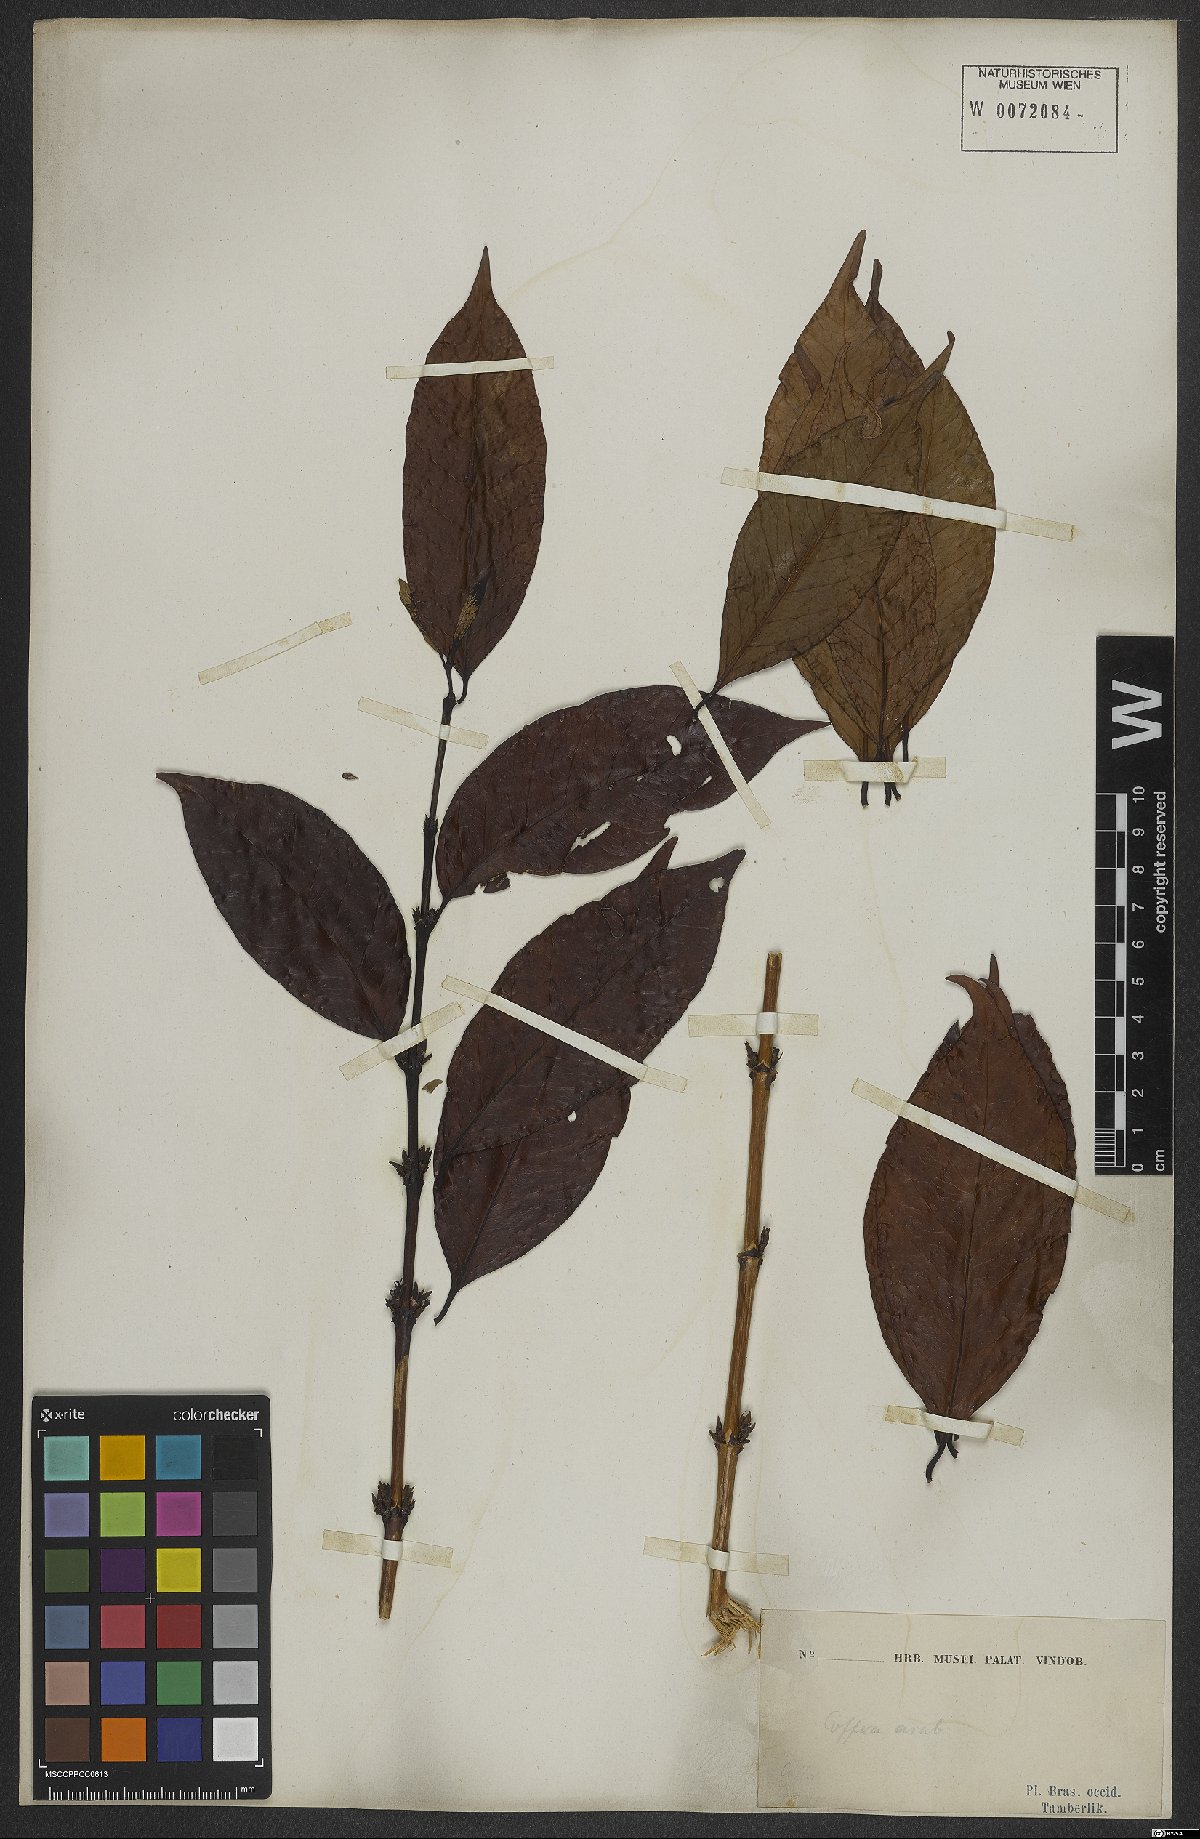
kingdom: Plantae
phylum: Tracheophyta
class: Magnoliopsida
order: Gentianales
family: Rubiaceae
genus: Coffea
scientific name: Coffea arabica
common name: Coffee
